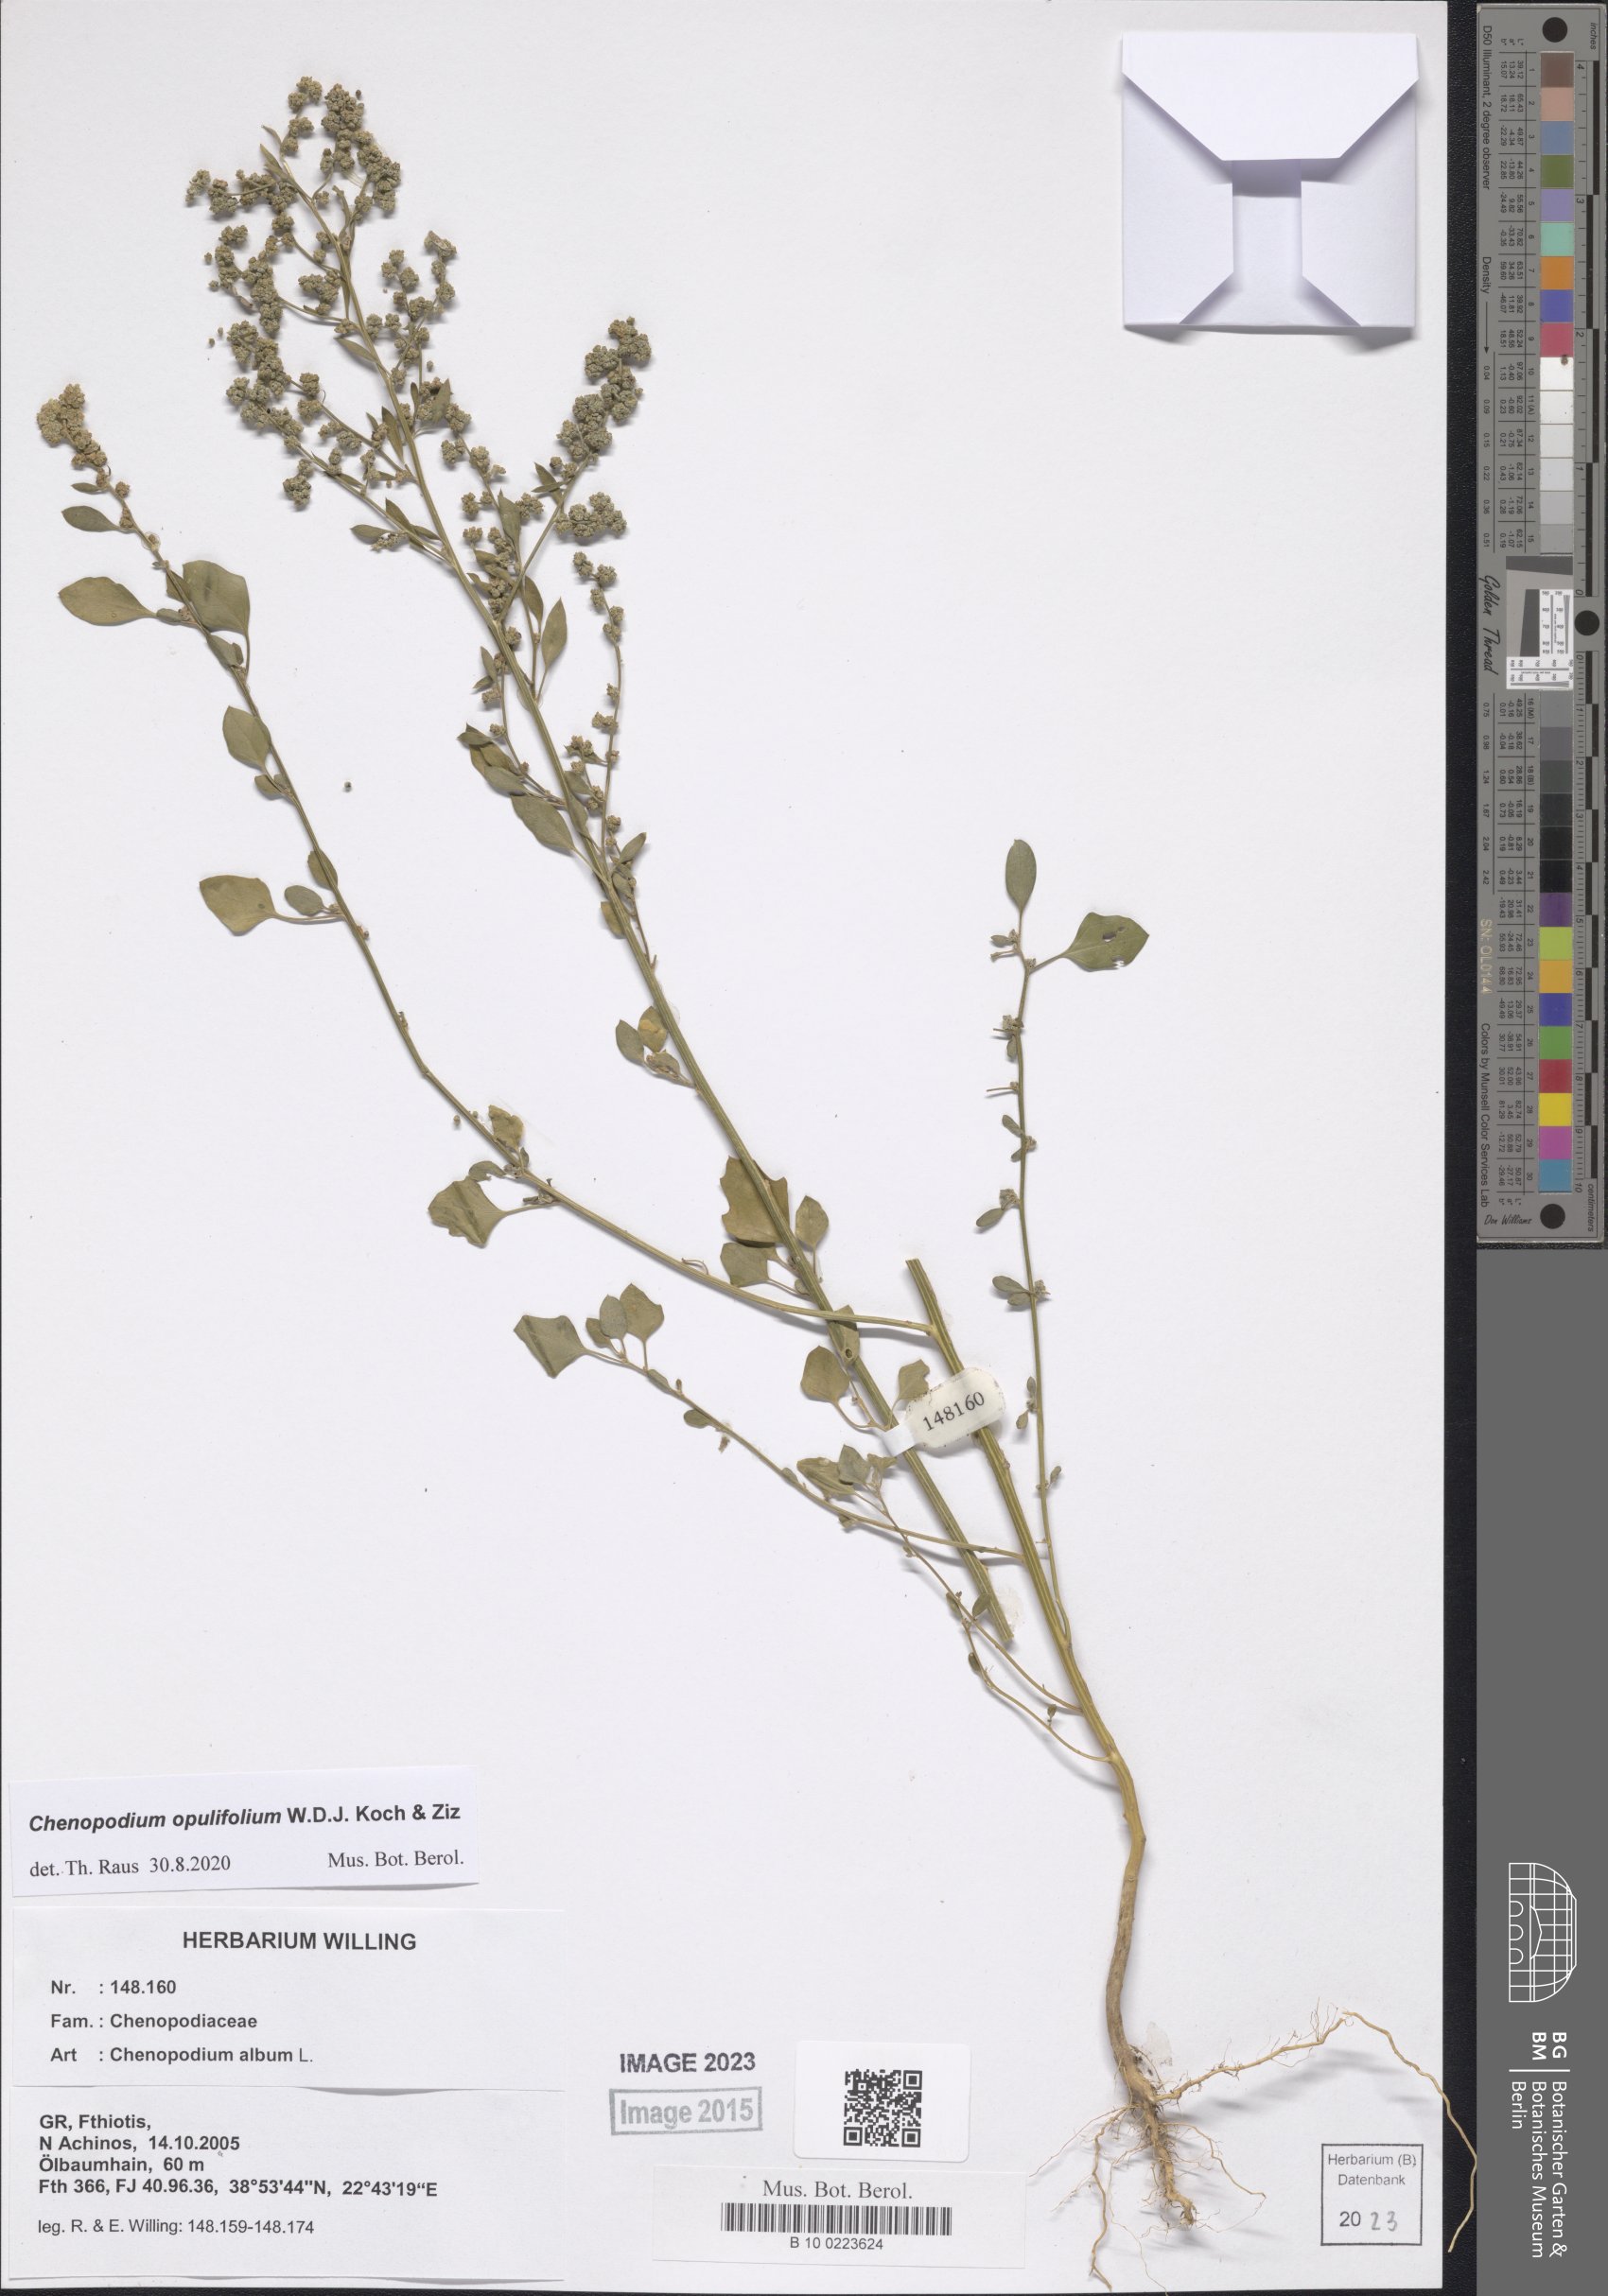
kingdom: Plantae
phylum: Tracheophyta
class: Magnoliopsida
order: Caryophyllales
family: Amaranthaceae
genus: Chenopodium
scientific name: Chenopodium opulifolium
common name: Grey goosefoot
